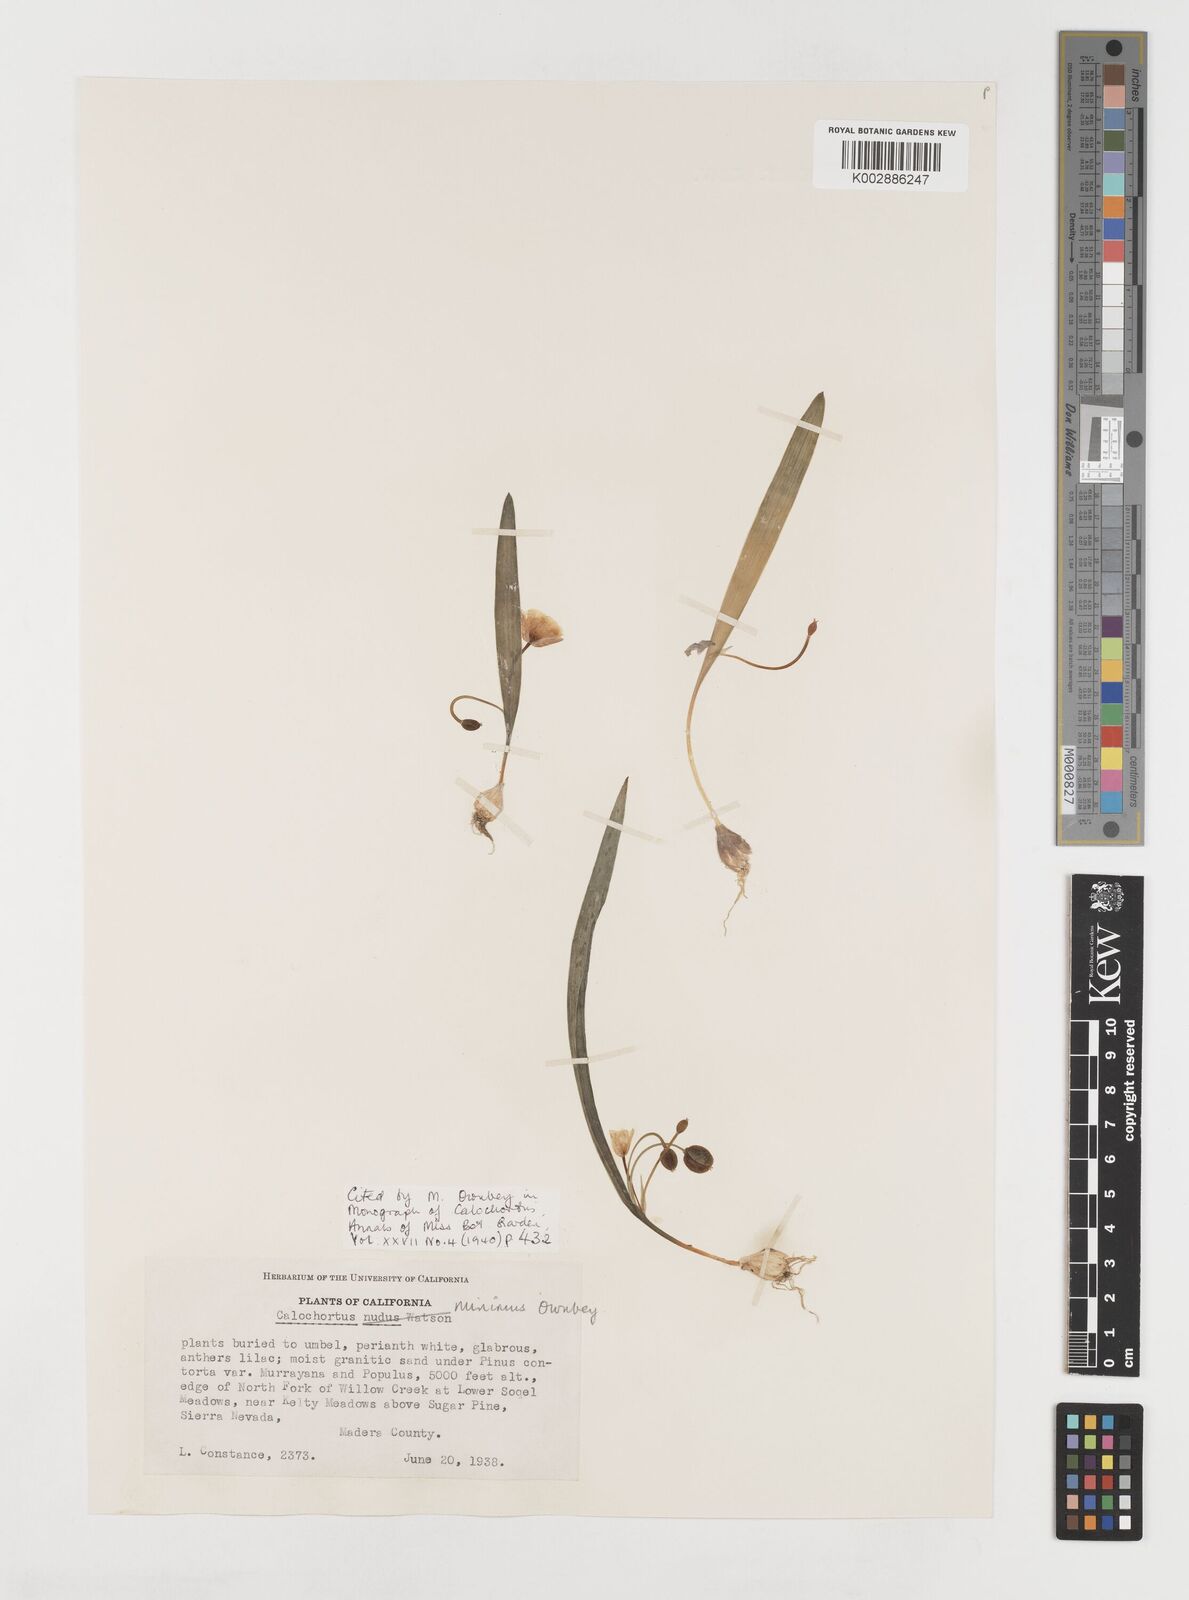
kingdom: Plantae
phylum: Tracheophyta
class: Liliopsida
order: Liliales
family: Liliaceae
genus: Calochortus
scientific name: Calochortus minimus
